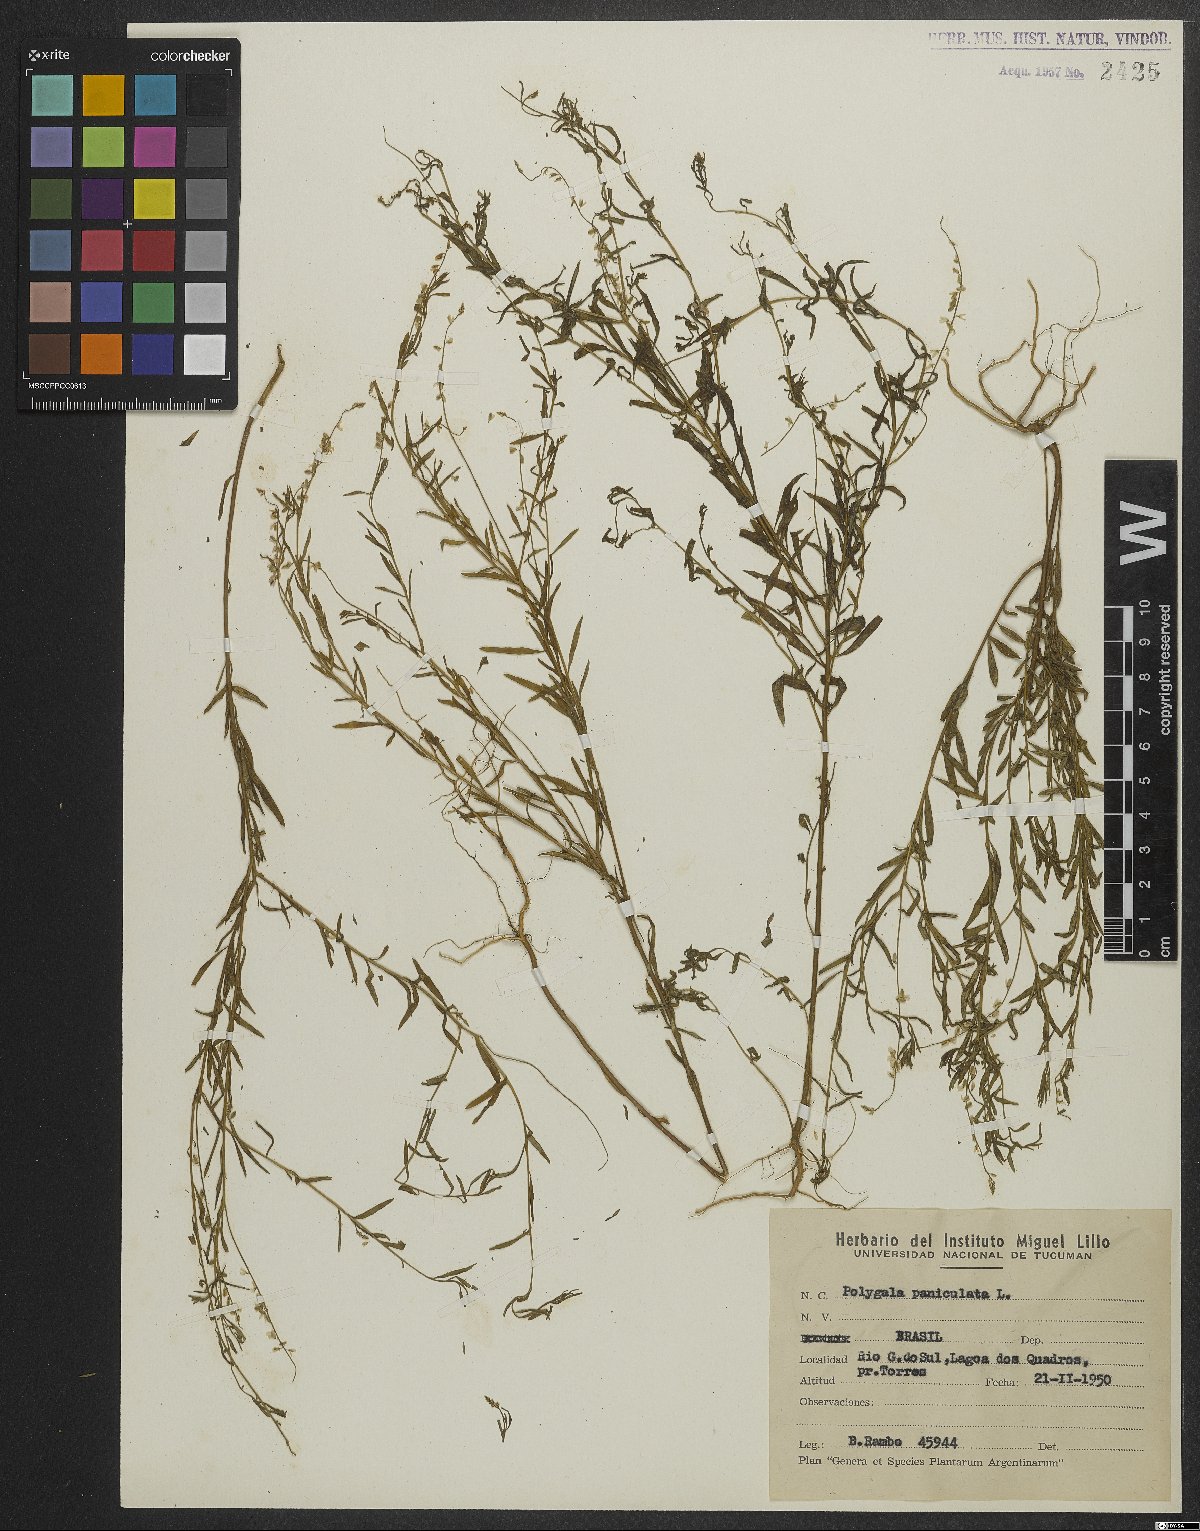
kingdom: Plantae
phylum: Tracheophyta
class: Magnoliopsida
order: Fabales
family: Polygalaceae
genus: Polygala
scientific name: Polygala exilis
